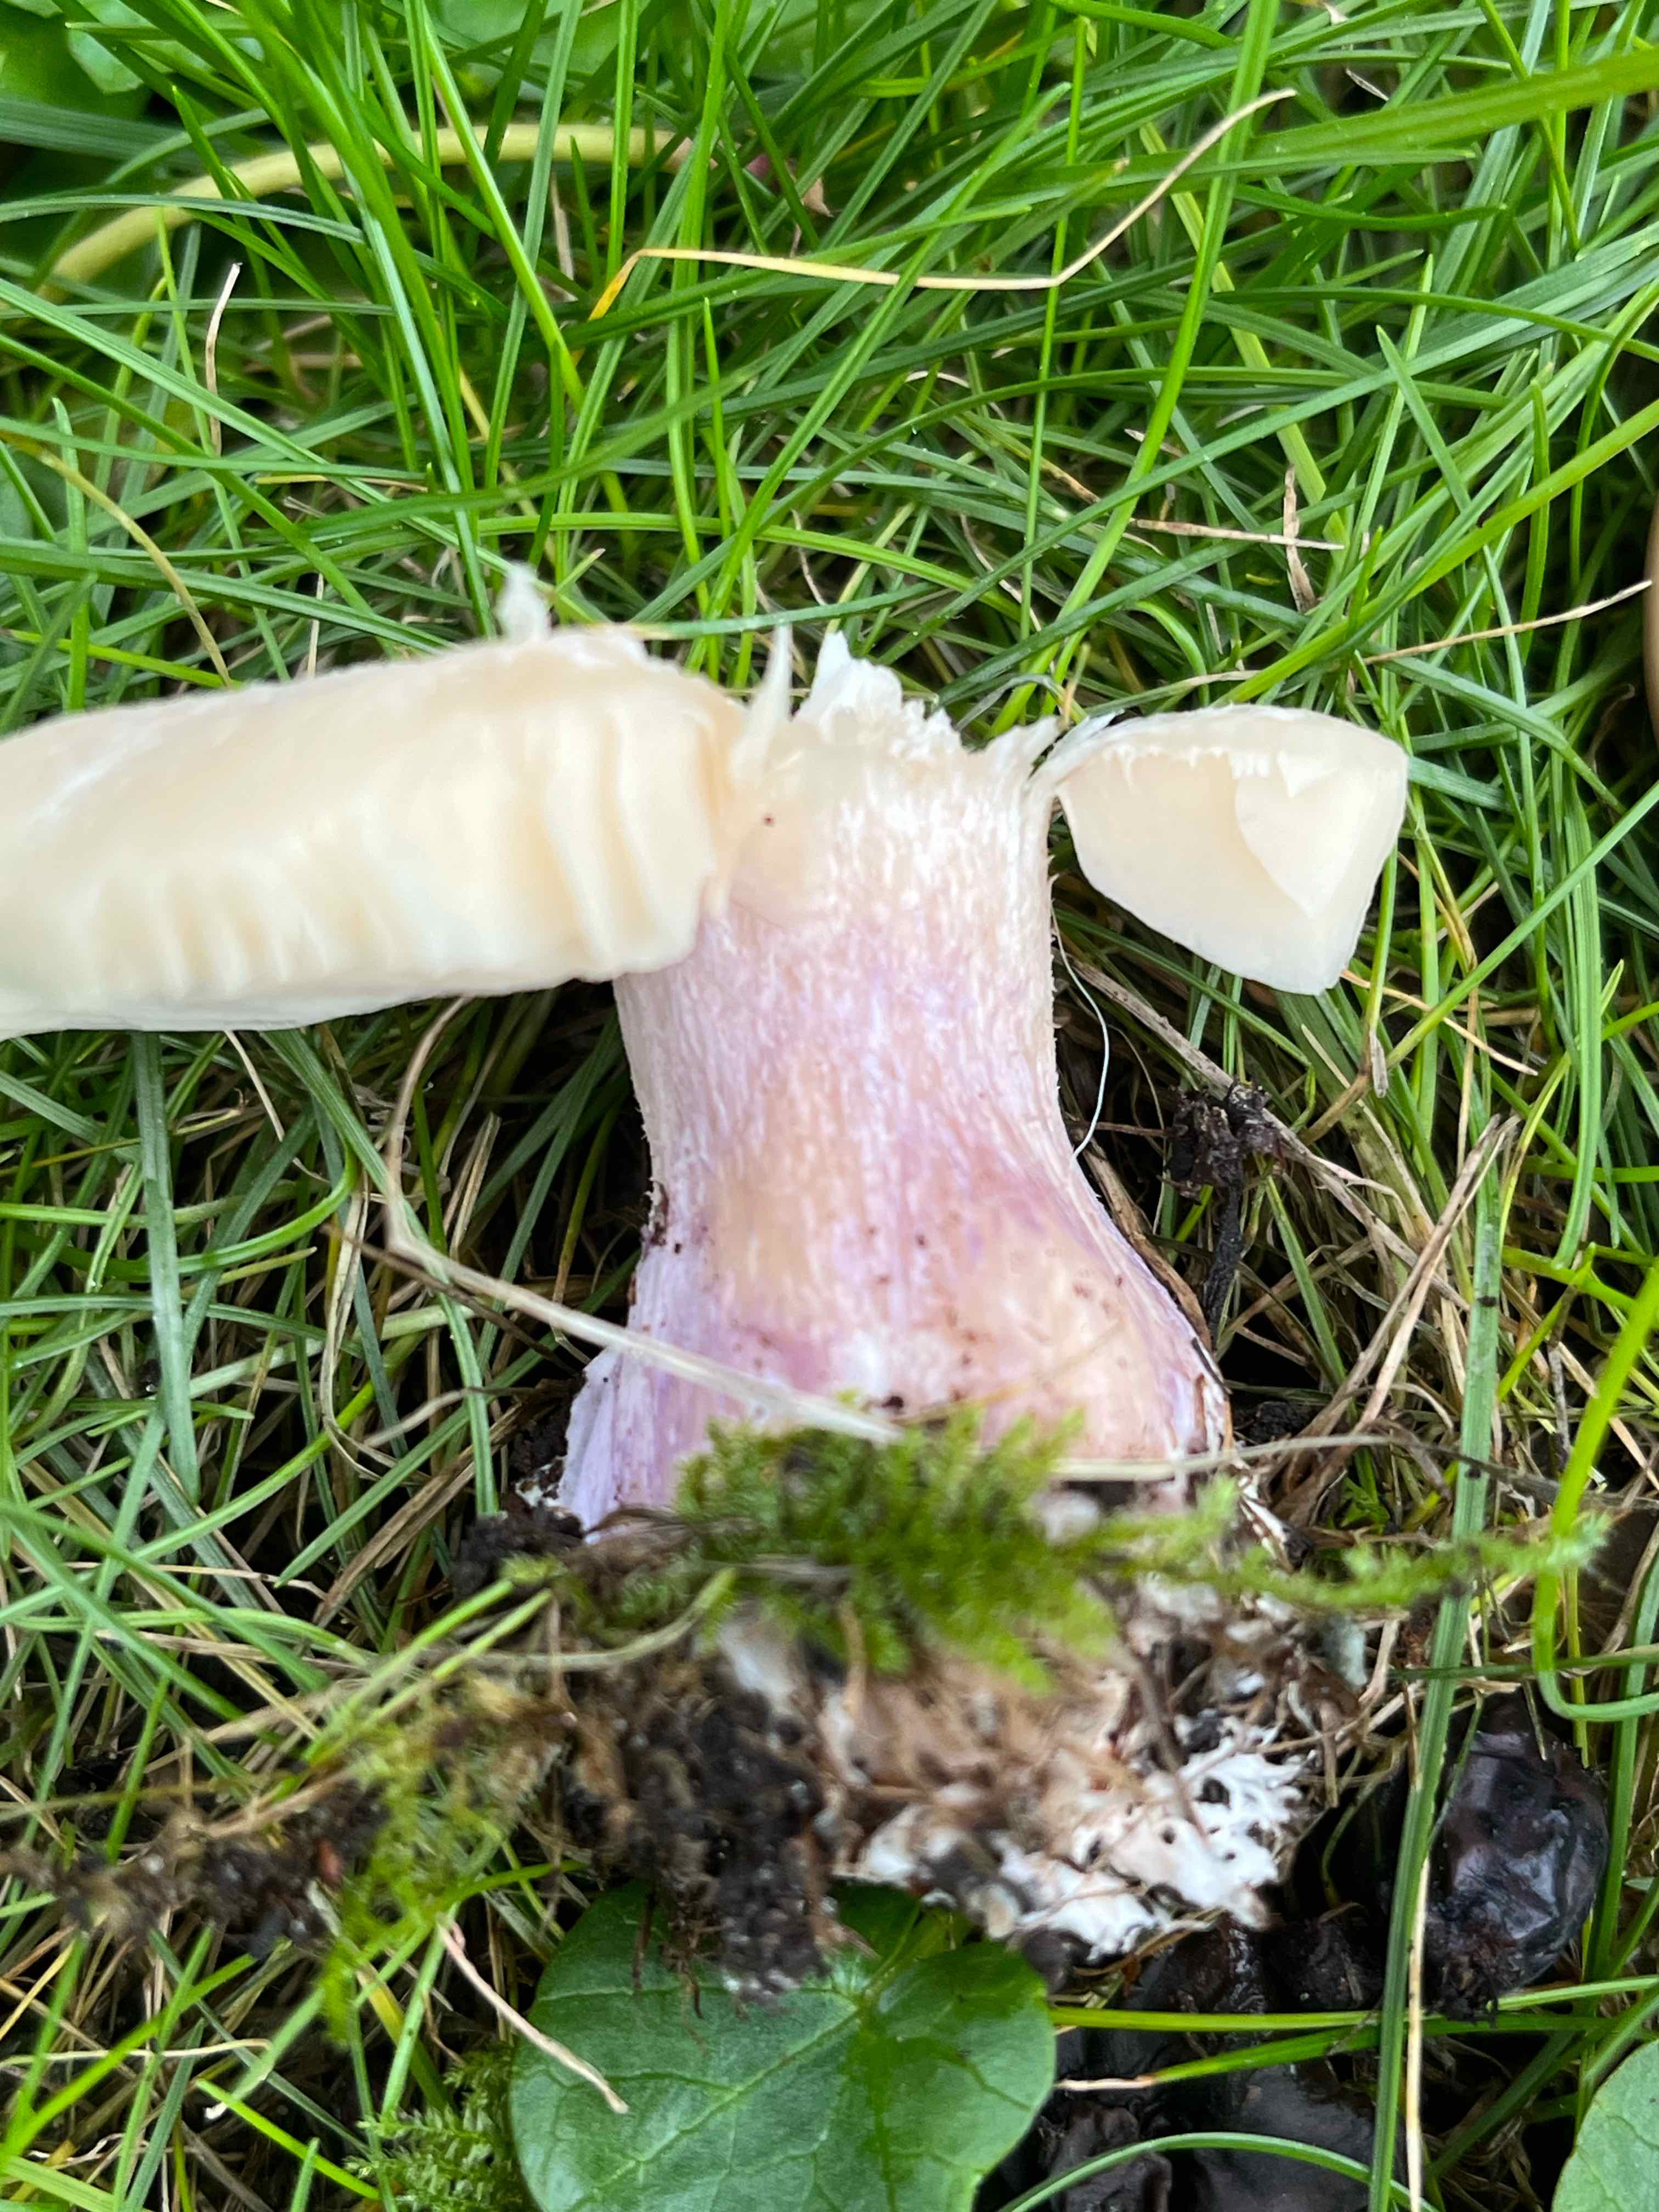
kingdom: Fungi
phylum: Basidiomycota
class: Agaricomycetes
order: Agaricales
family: Tricholomataceae
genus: Lepista
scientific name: Lepista personata
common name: bleg hekseringshat
